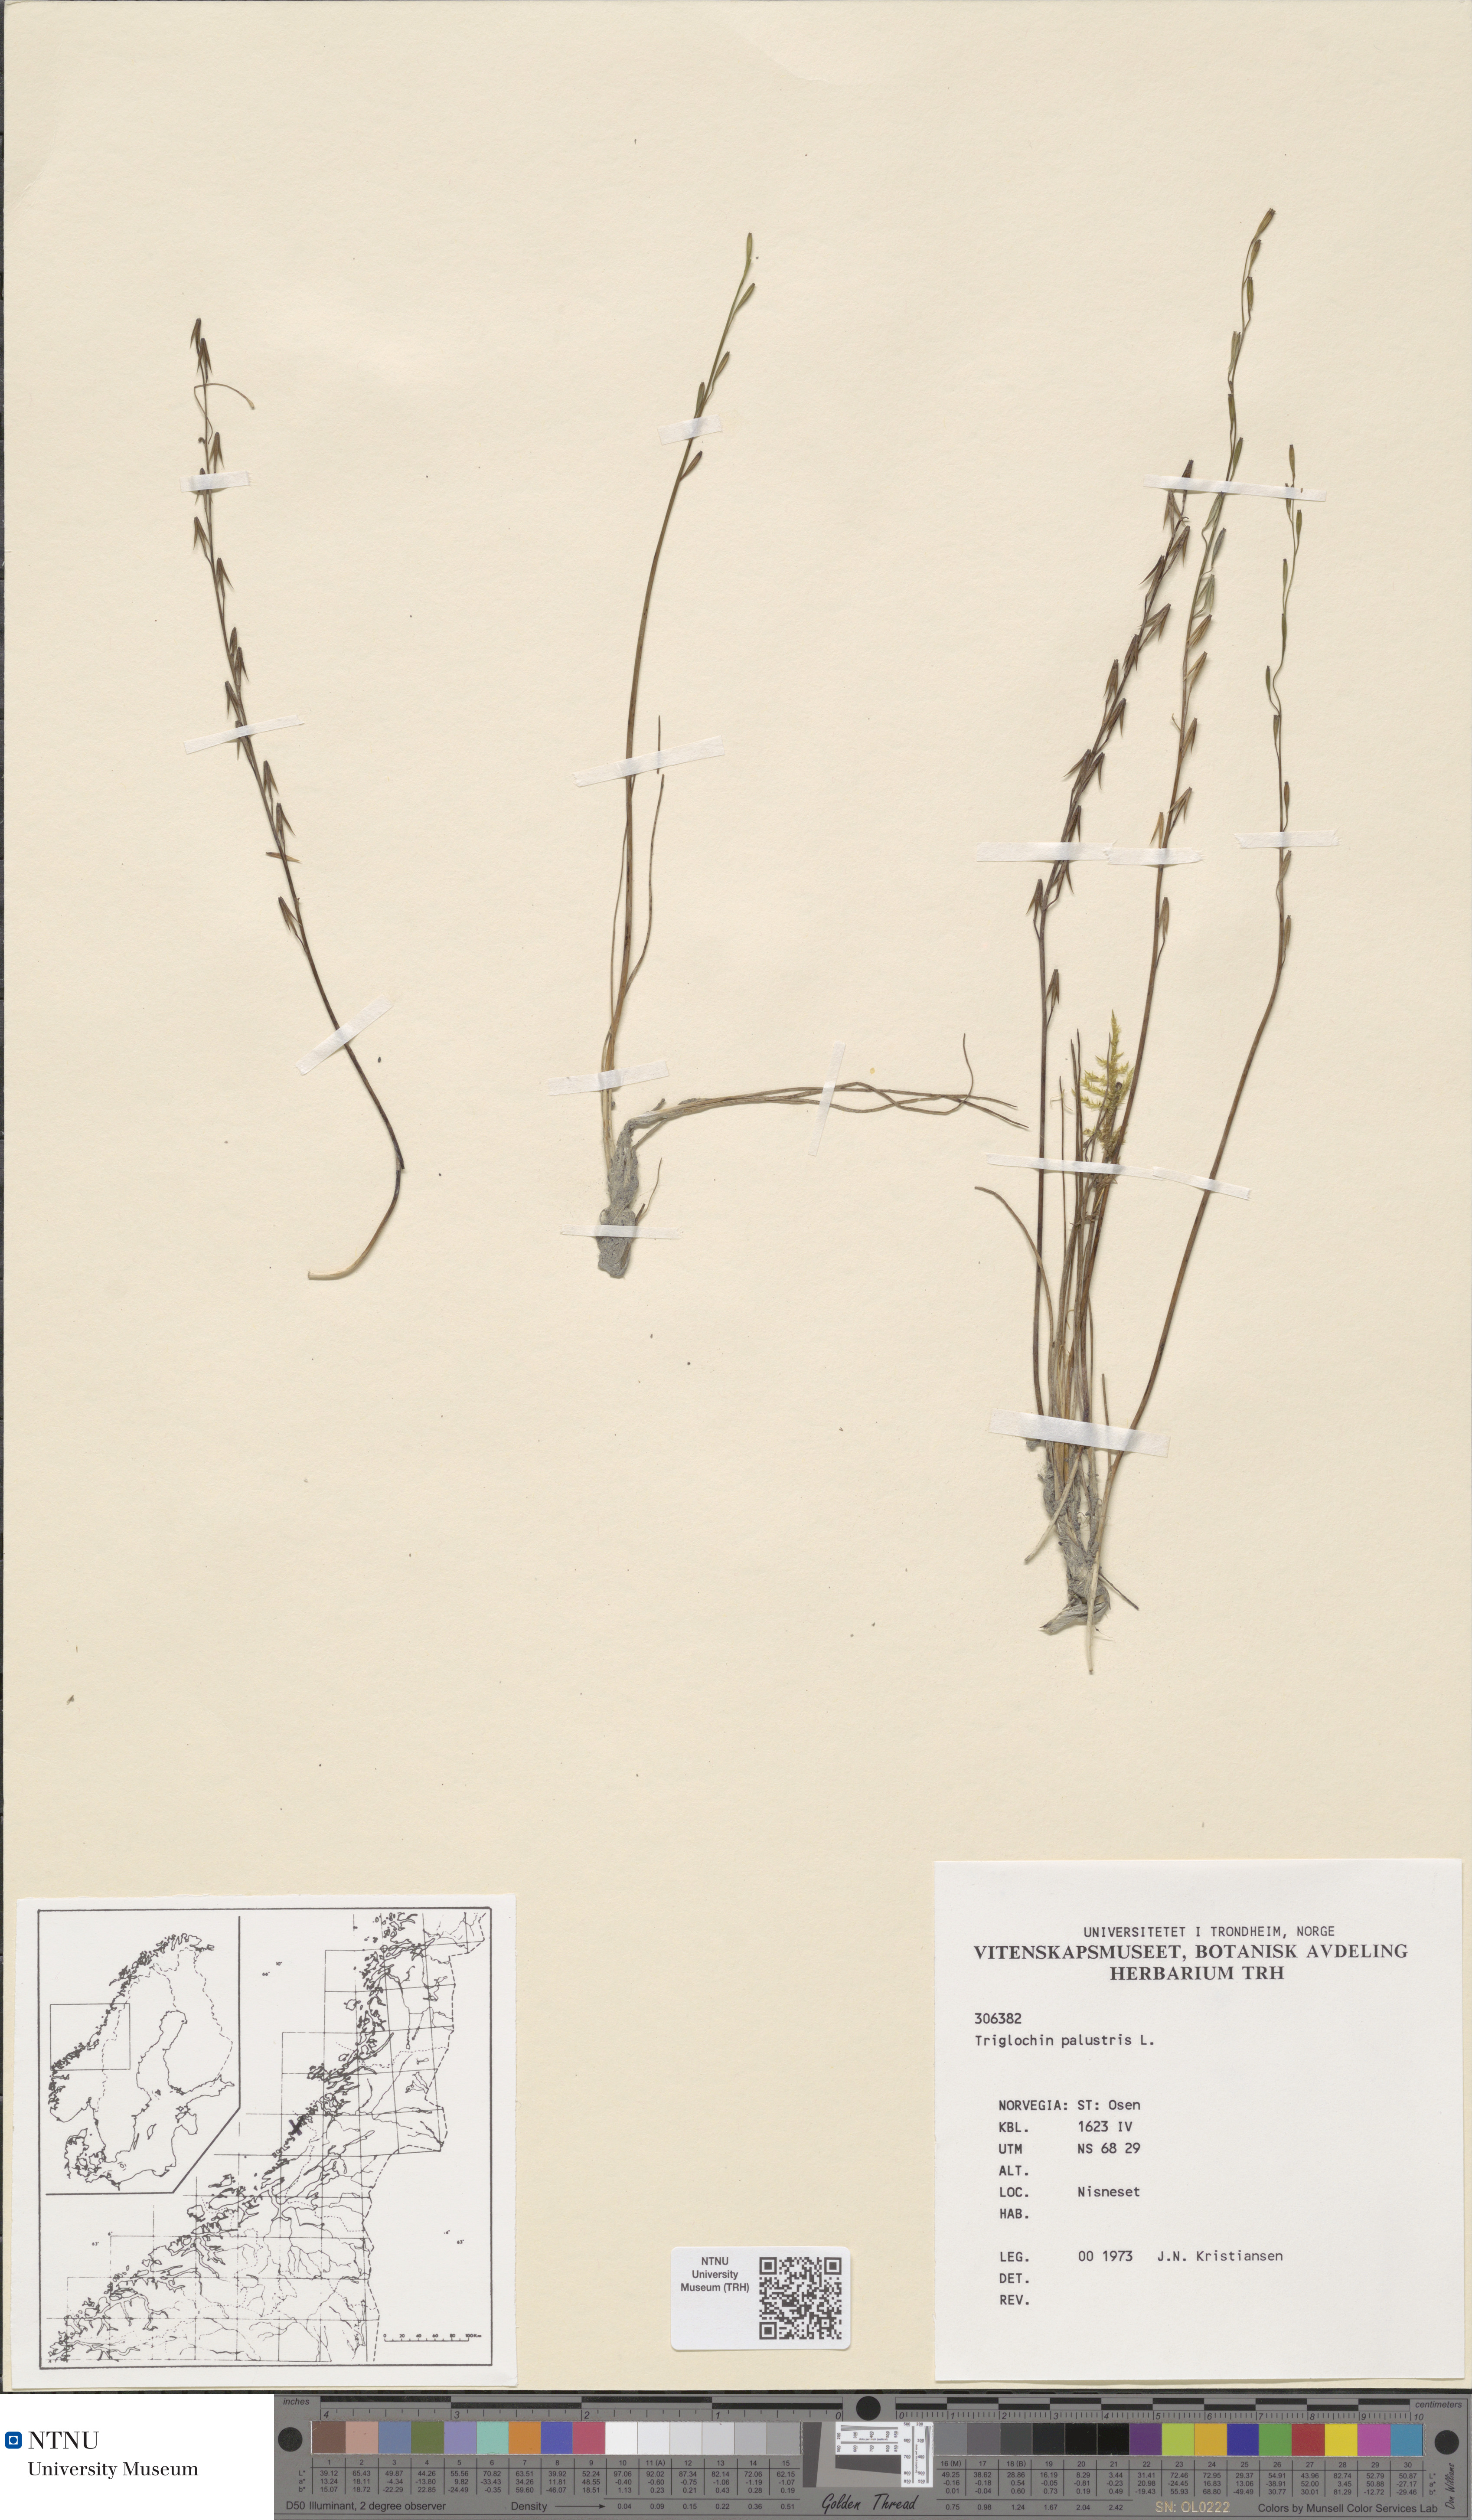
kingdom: Plantae
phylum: Tracheophyta
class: Liliopsida
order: Alismatales
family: Juncaginaceae
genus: Triglochin
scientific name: Triglochin palustris
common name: Marsh arrowgrass
